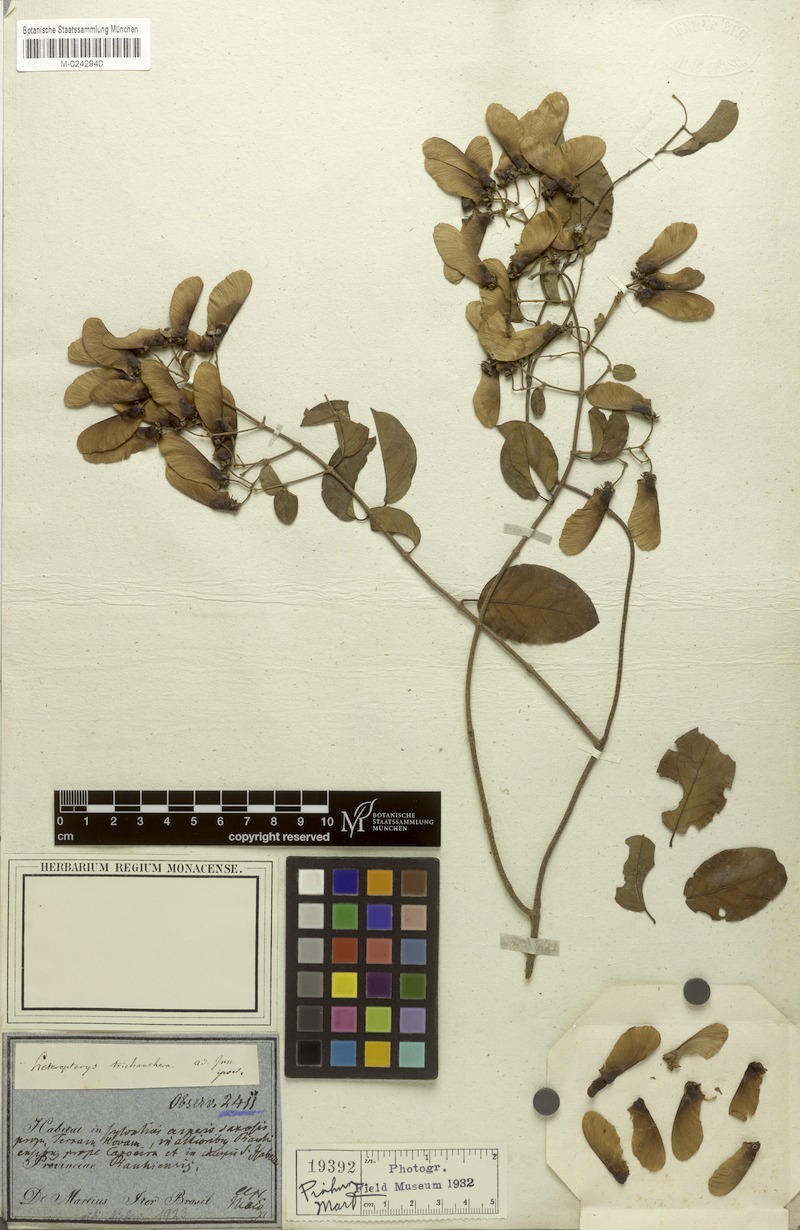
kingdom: Plantae
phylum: Tracheophyta
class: Magnoliopsida
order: Malpighiales
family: Malpighiaceae
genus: Heteropterys
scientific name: Heteropterys trichanthera
